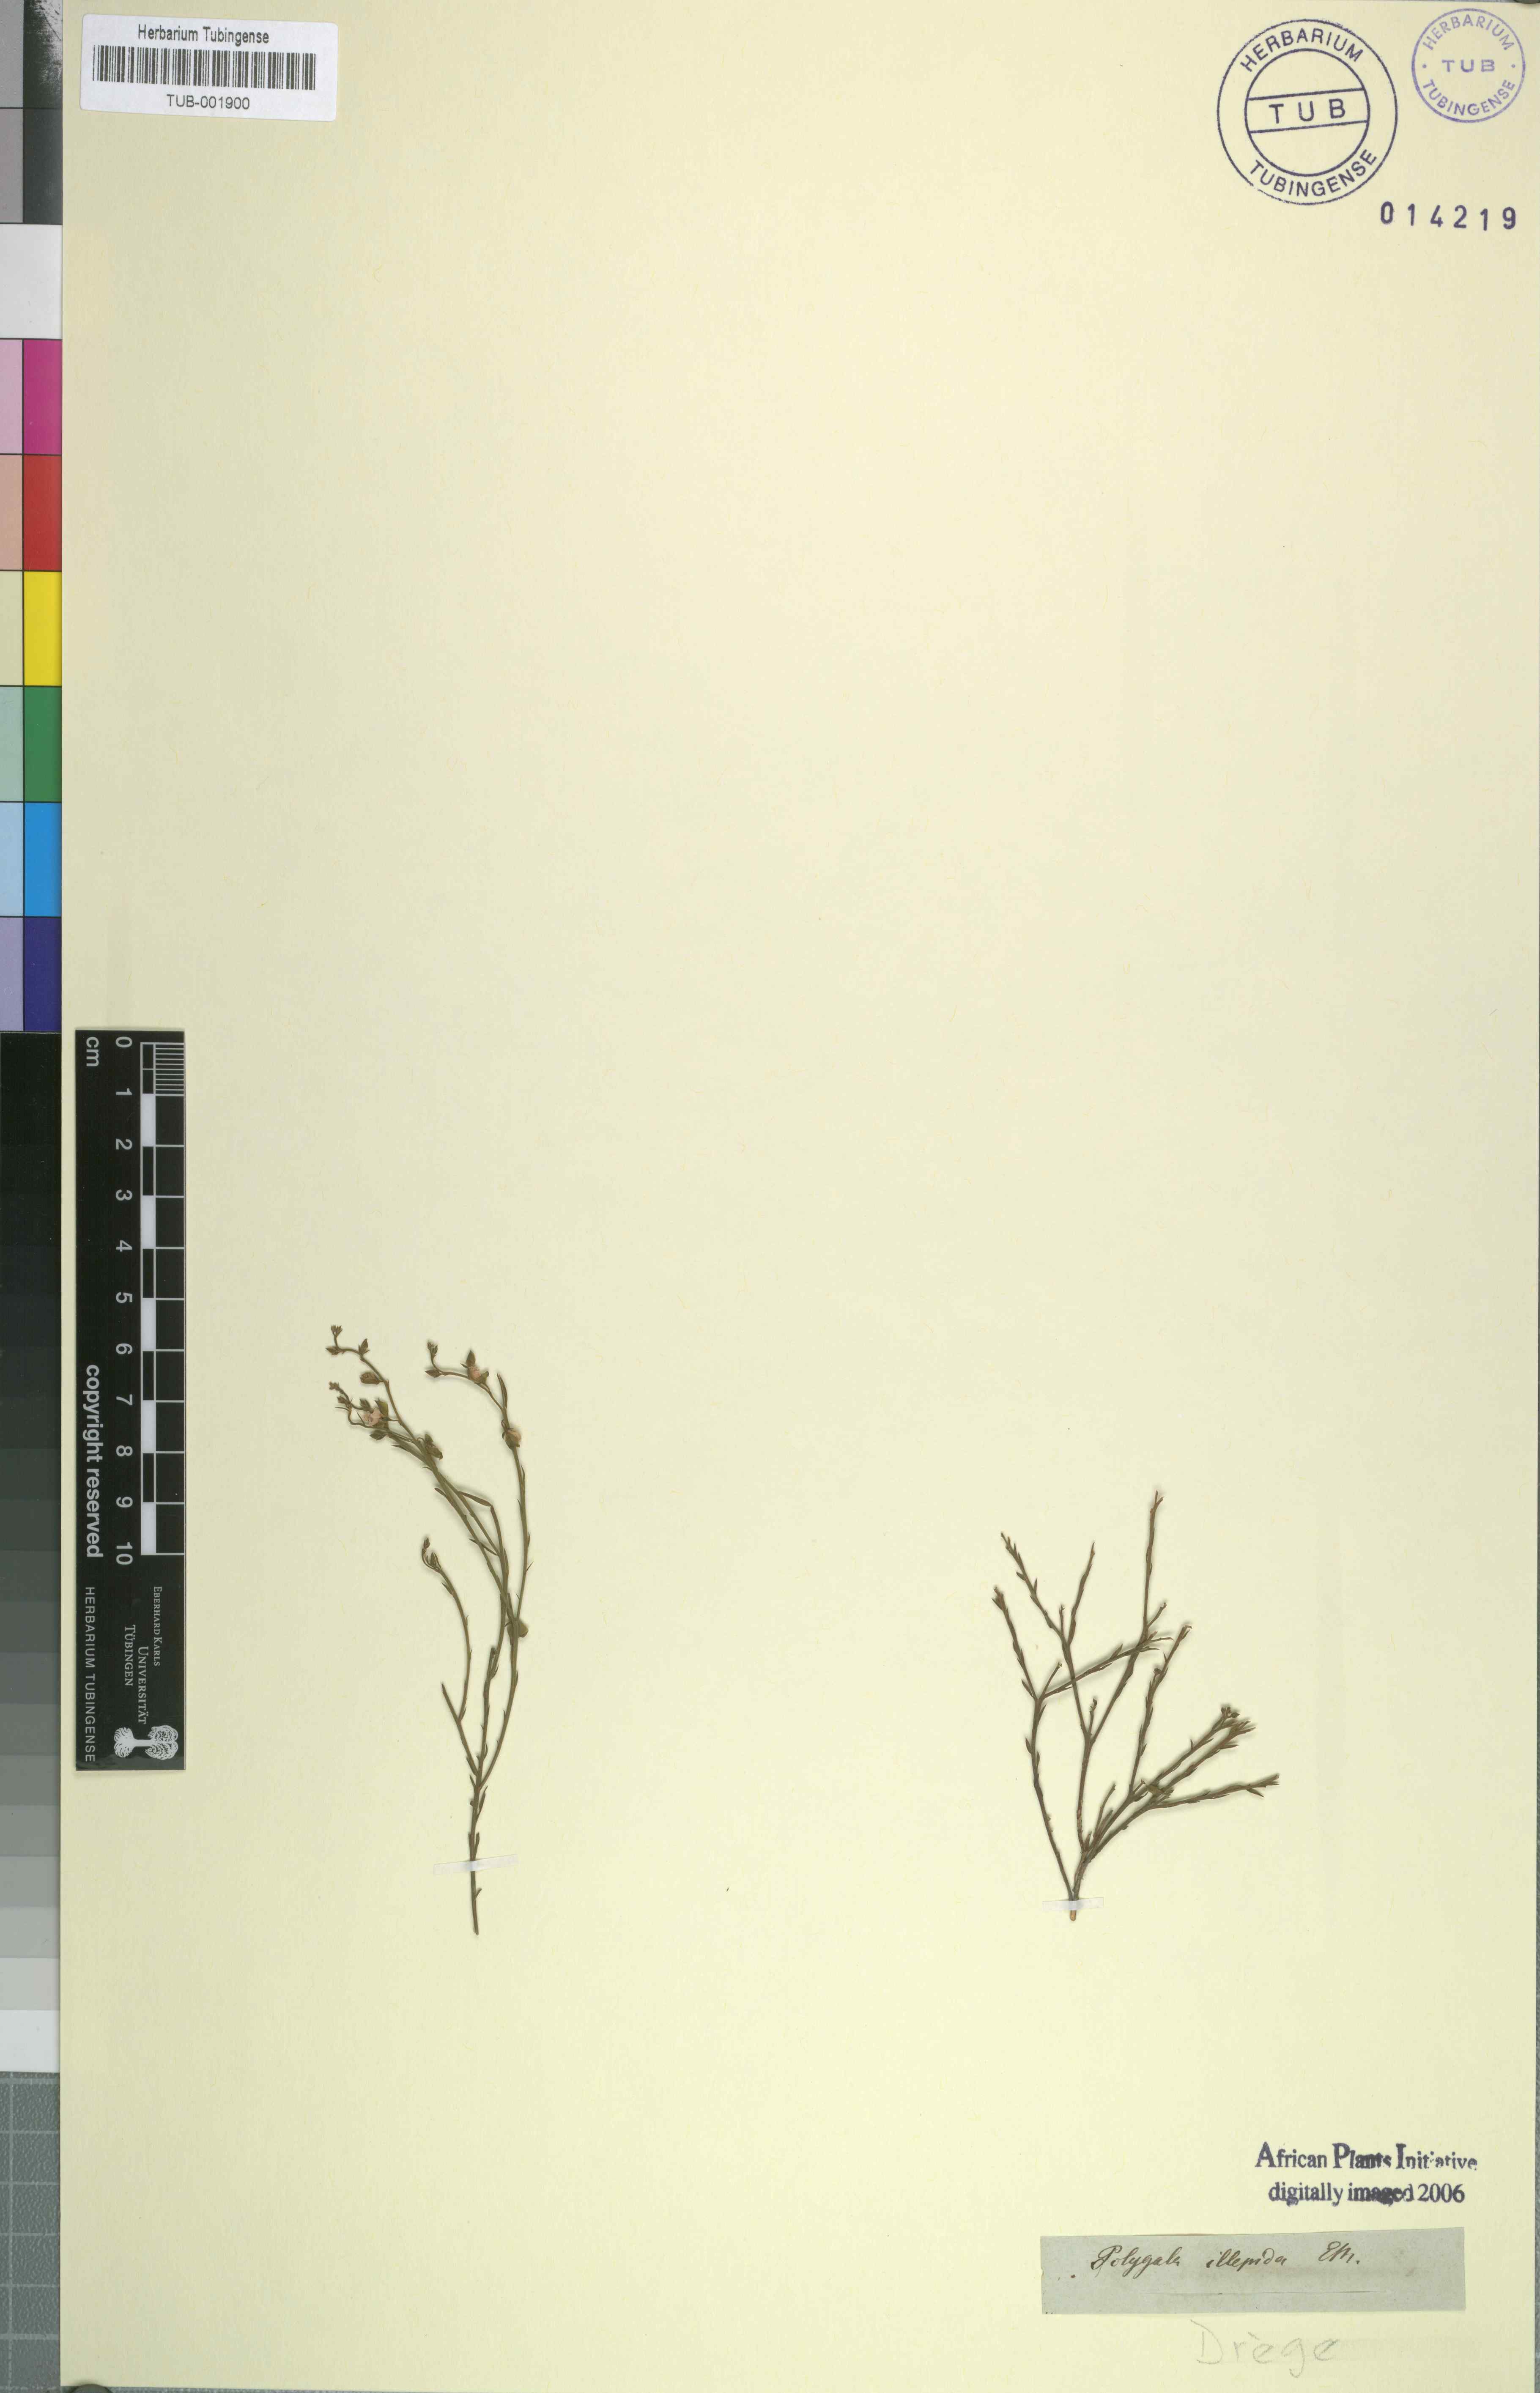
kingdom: Plantae
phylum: Tracheophyta
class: Magnoliopsida
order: Fabales
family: Polygalaceae
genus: Polygala
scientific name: Polygala illepida
